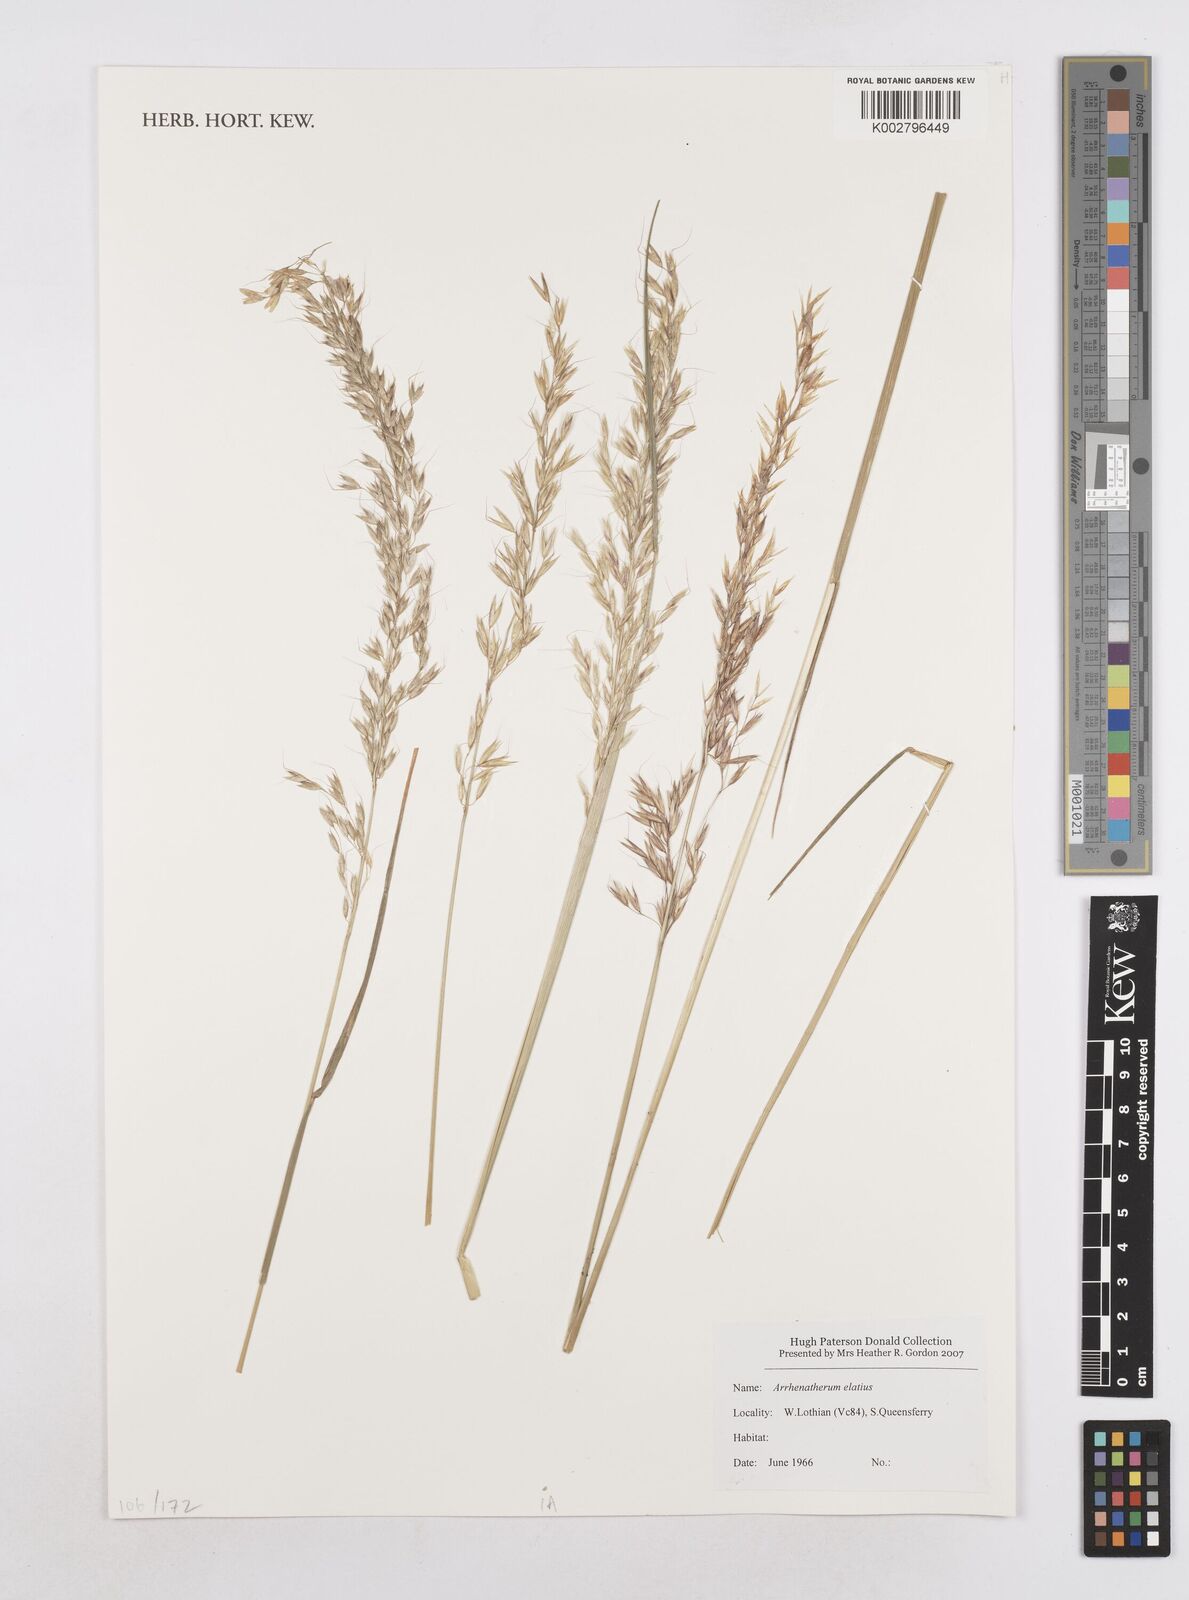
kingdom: Plantae
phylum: Tracheophyta
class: Liliopsida
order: Poales
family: Poaceae
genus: Arrhenatherum
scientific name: Arrhenatherum elatius
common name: Tall oatgrass
